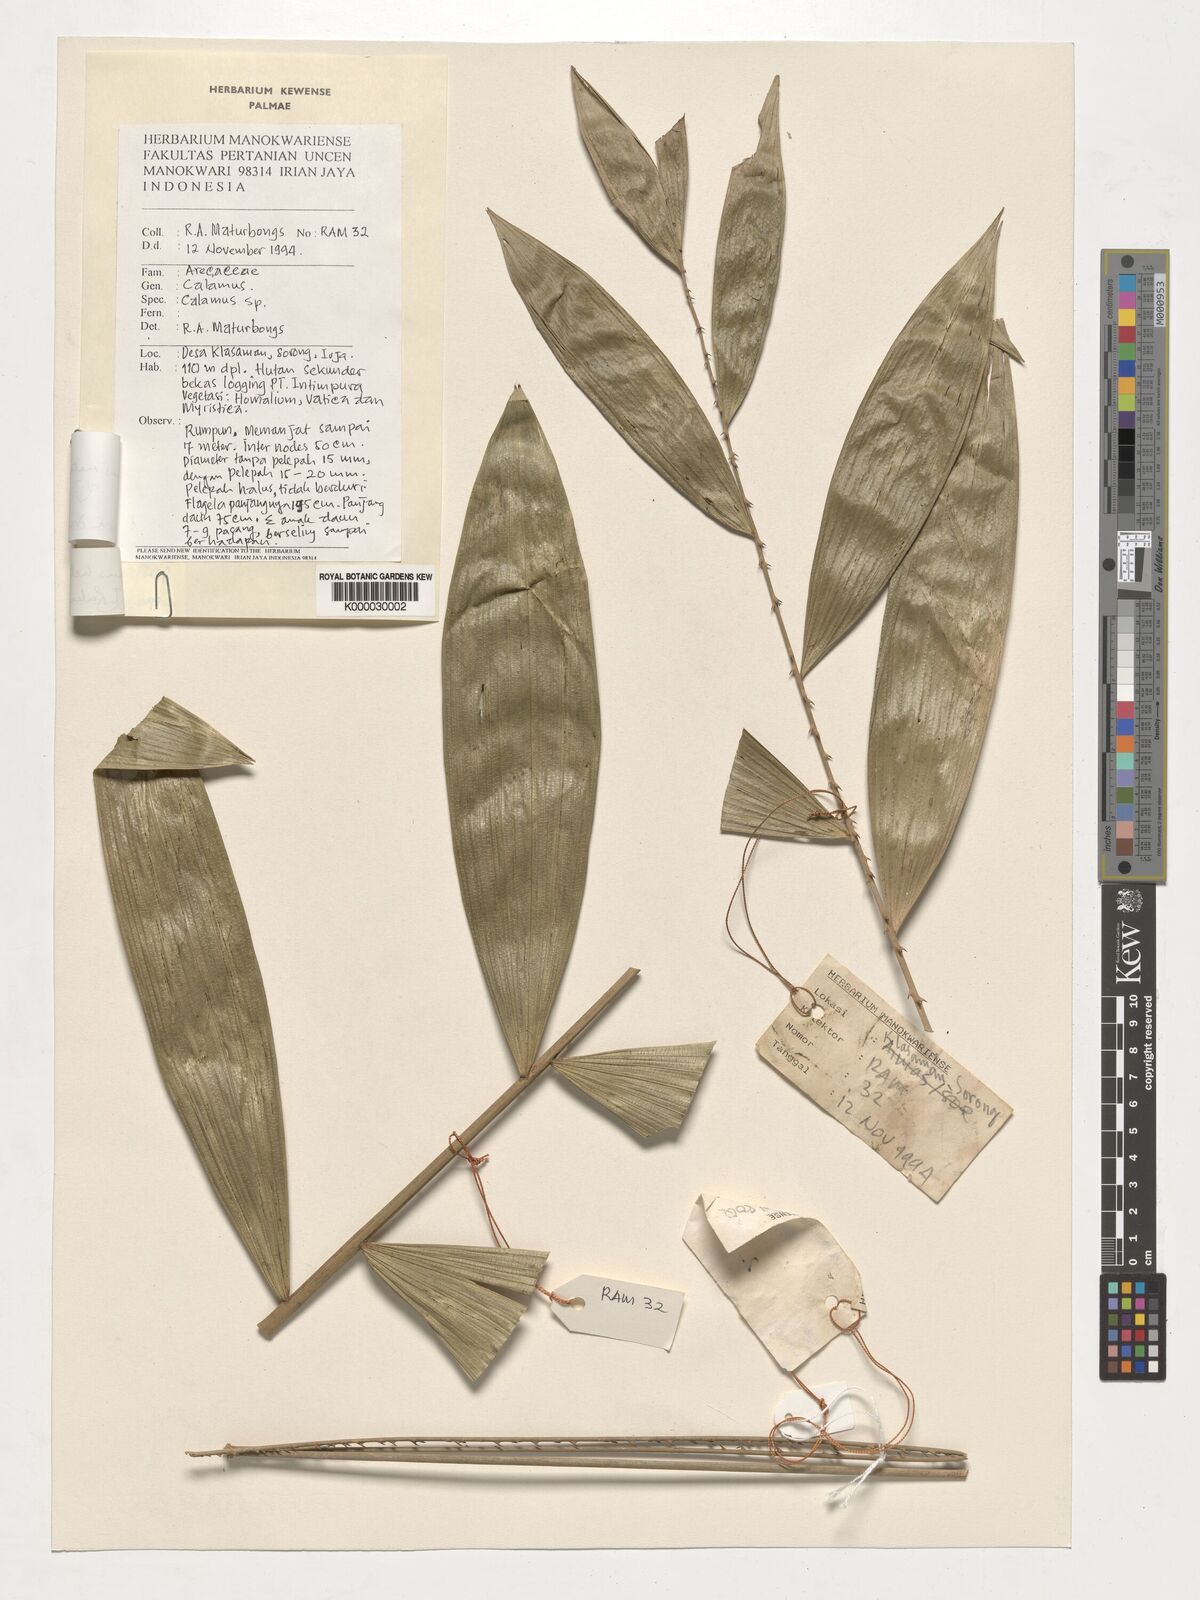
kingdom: Plantae
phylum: Tracheophyta
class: Liliopsida
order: Arecales
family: Arecaceae
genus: Calamus
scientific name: Calamus maturbongsii
